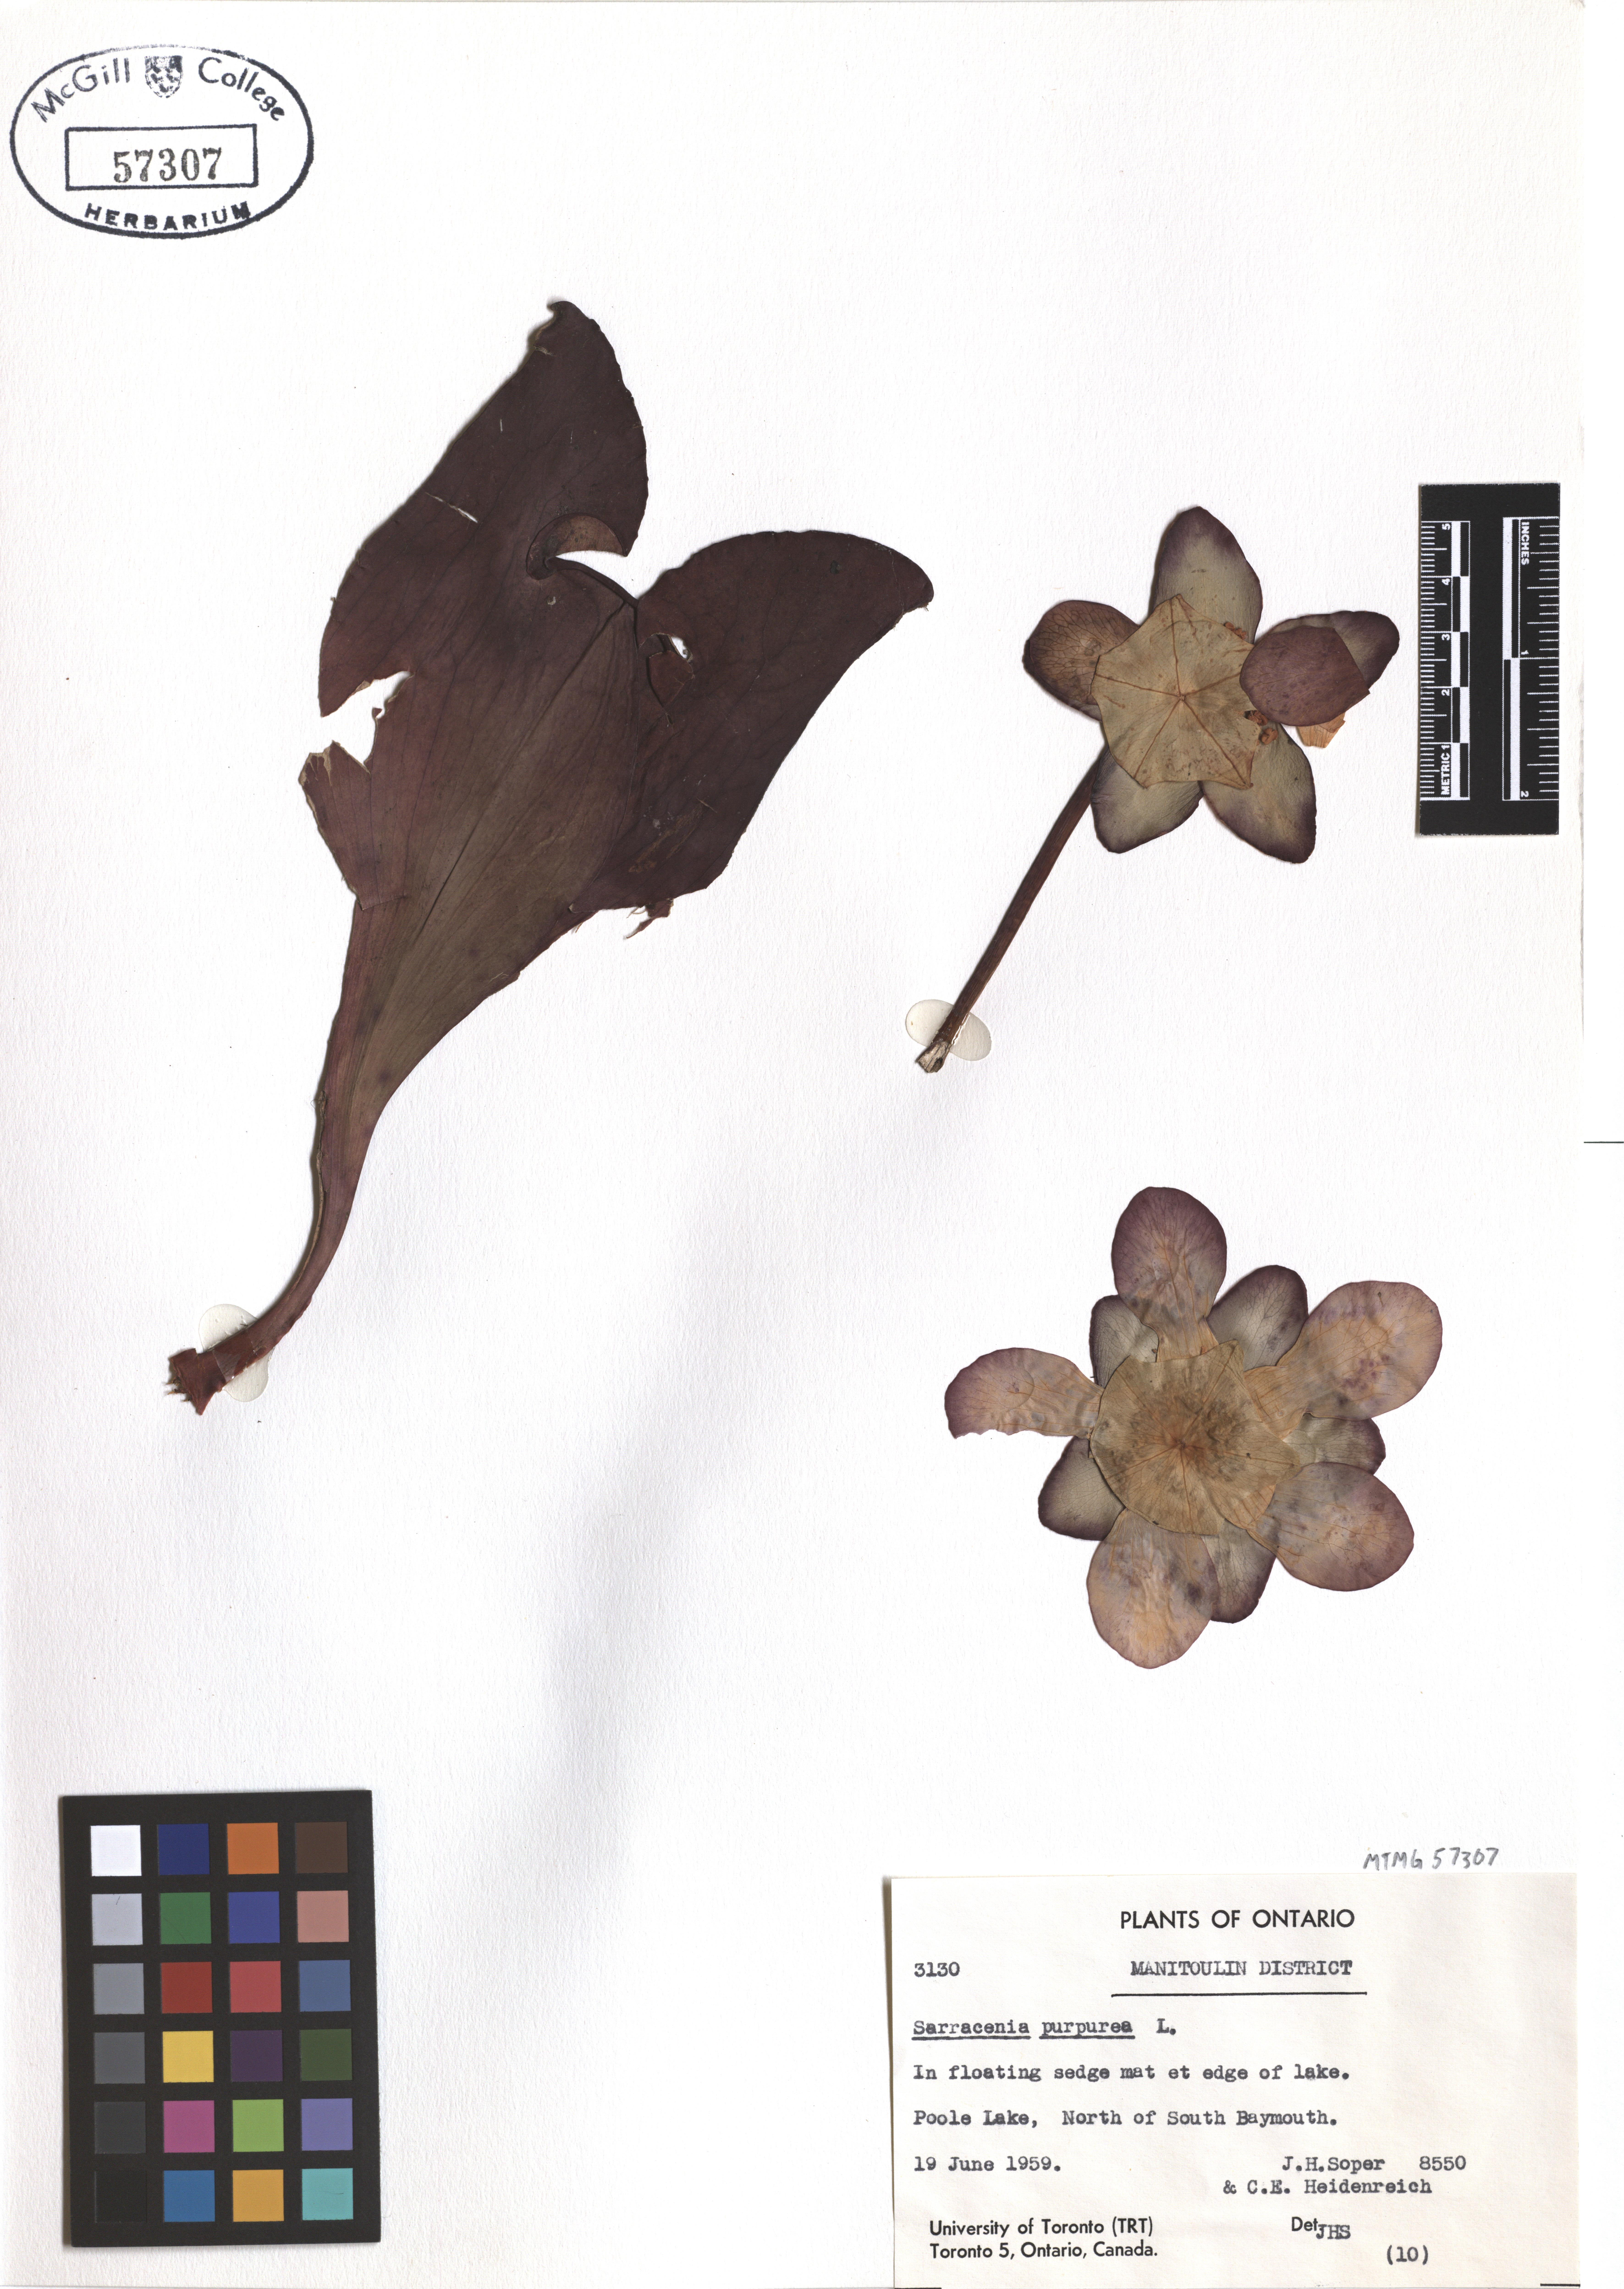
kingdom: Plantae
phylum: Tracheophyta
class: Magnoliopsida
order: Ericales
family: Sarraceniaceae
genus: Sarracenia
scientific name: Sarracenia purpurea
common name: Pitcherplant
